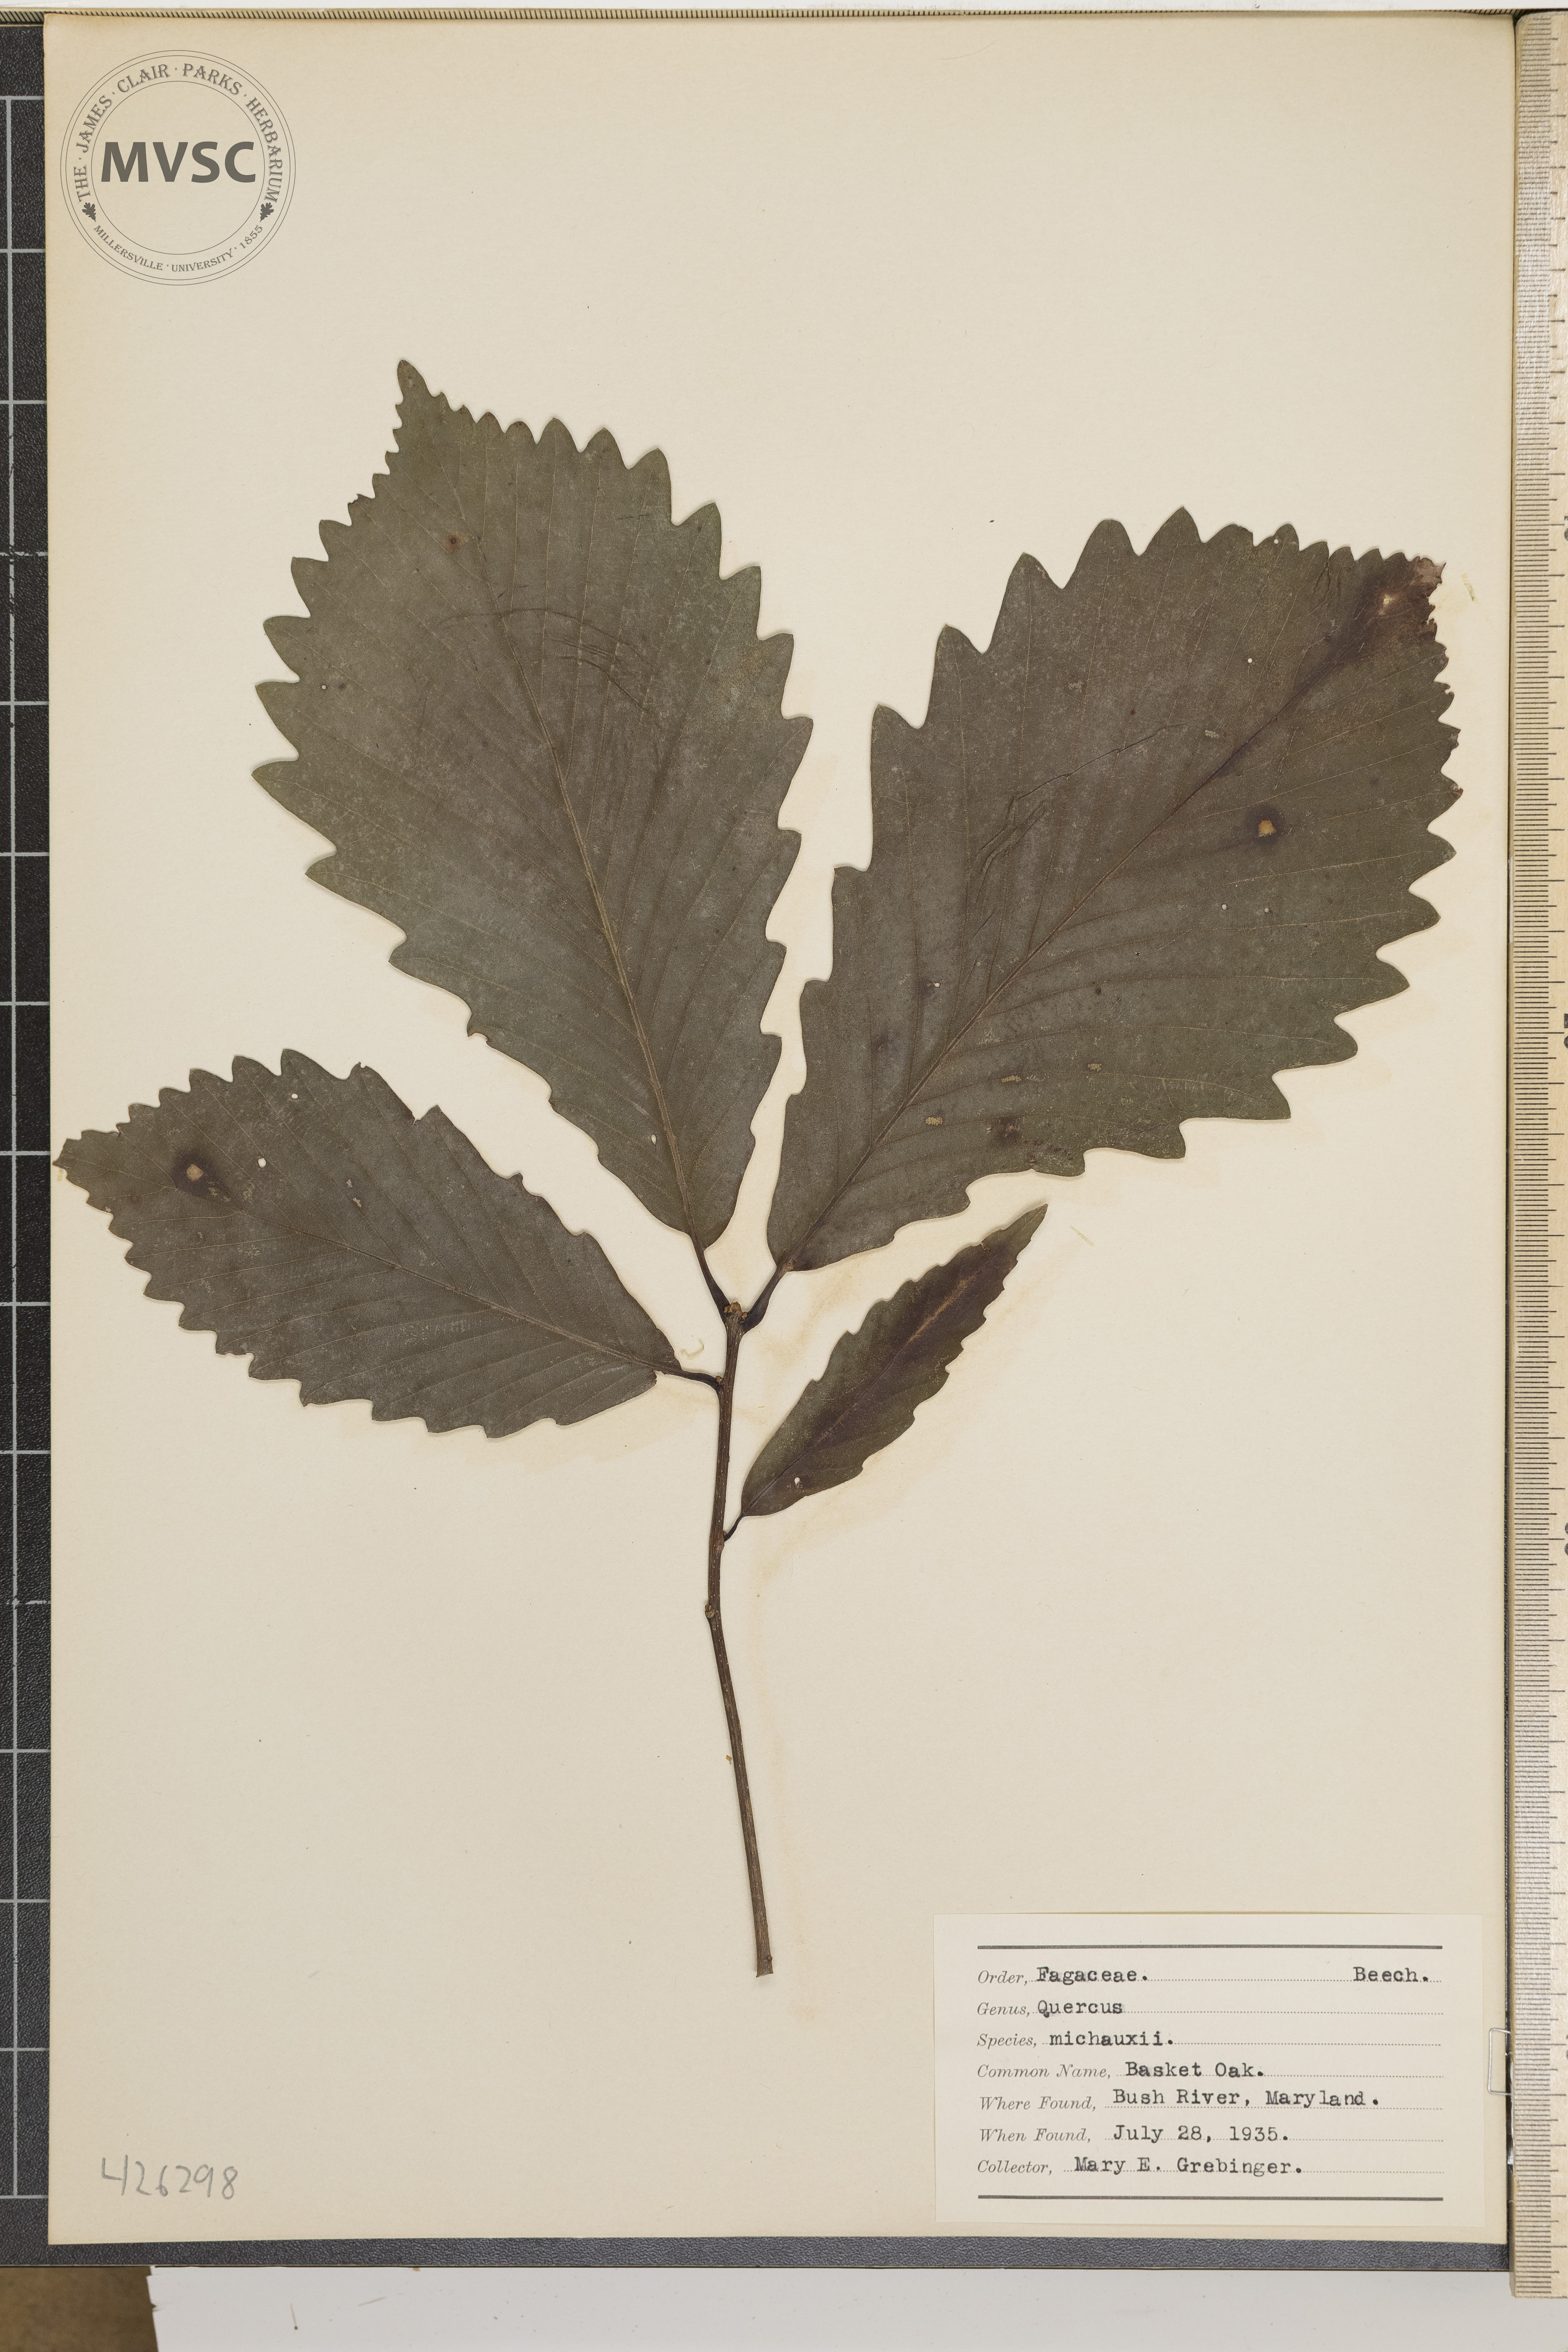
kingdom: Plantae
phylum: Tracheophyta
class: Magnoliopsida
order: Fagales
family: Fagaceae
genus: Quercus
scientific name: Quercus michauxii
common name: Basket Oak
